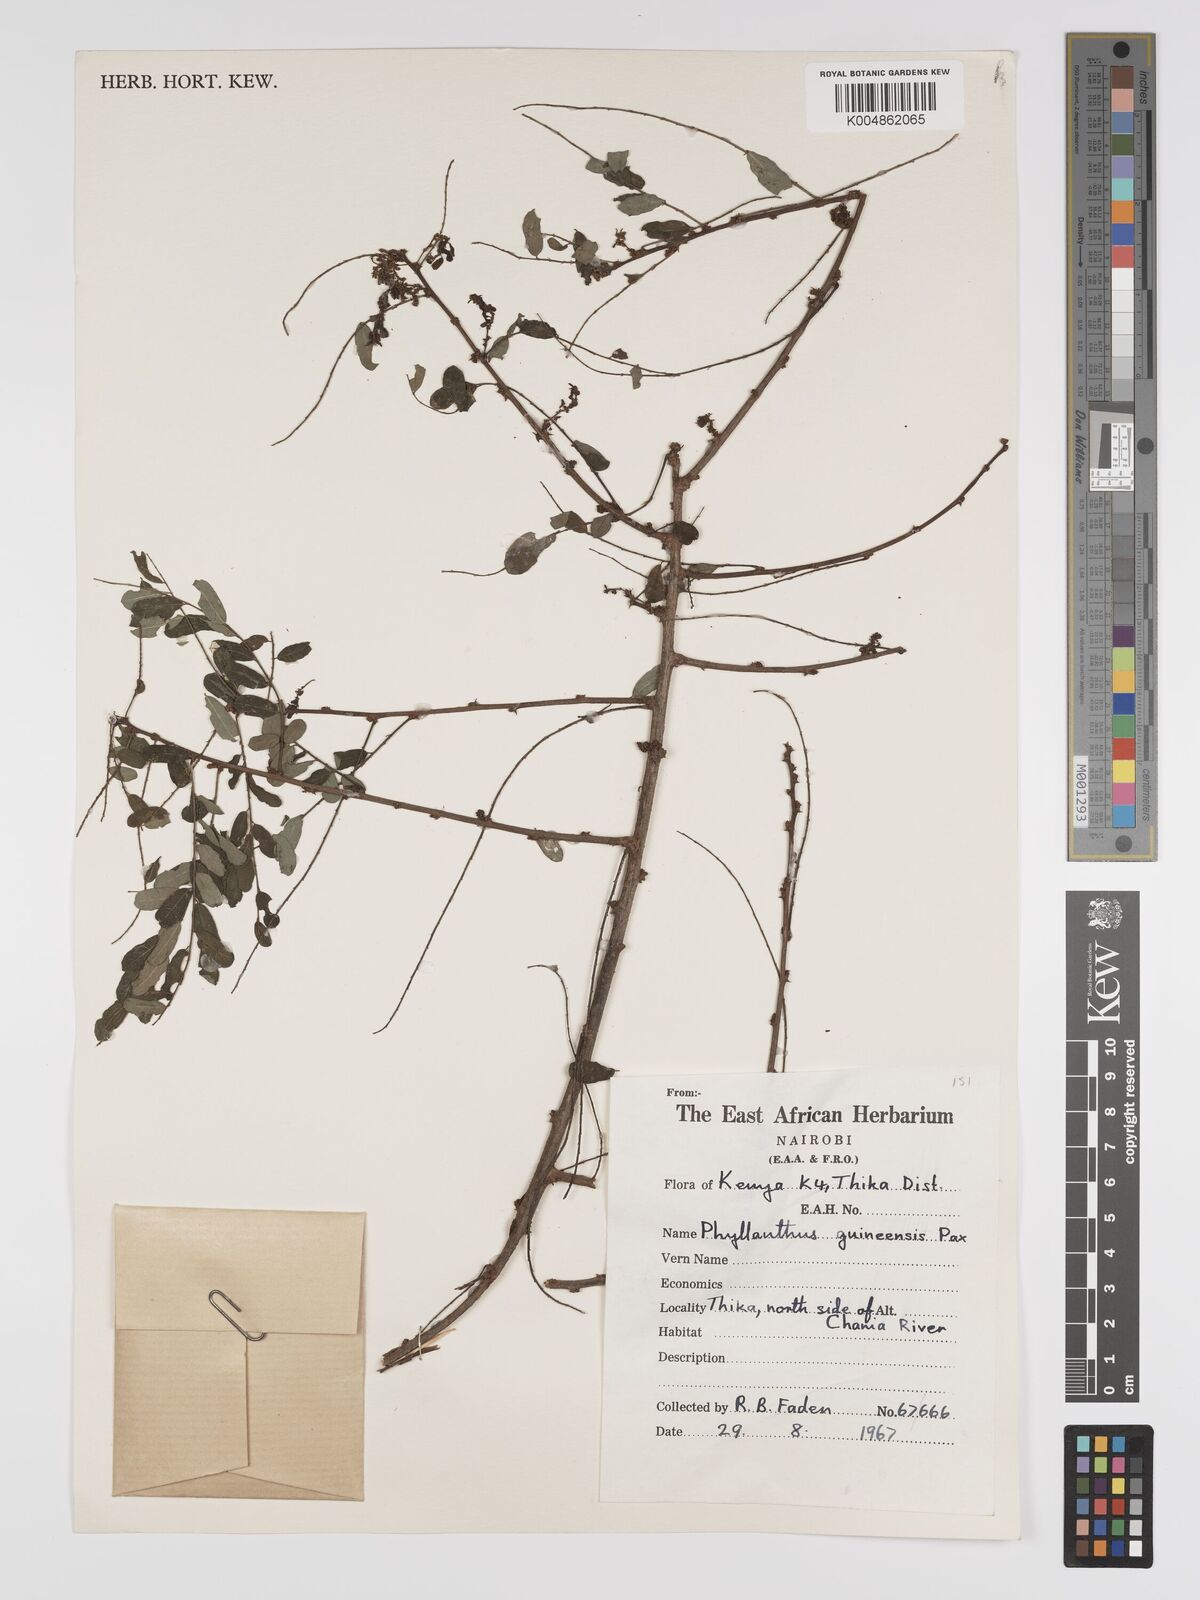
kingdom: Plantae
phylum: Tracheophyta
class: Magnoliopsida
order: Malpighiales
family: Phyllanthaceae
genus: Phyllanthus
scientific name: Phyllanthus ovalifolius
